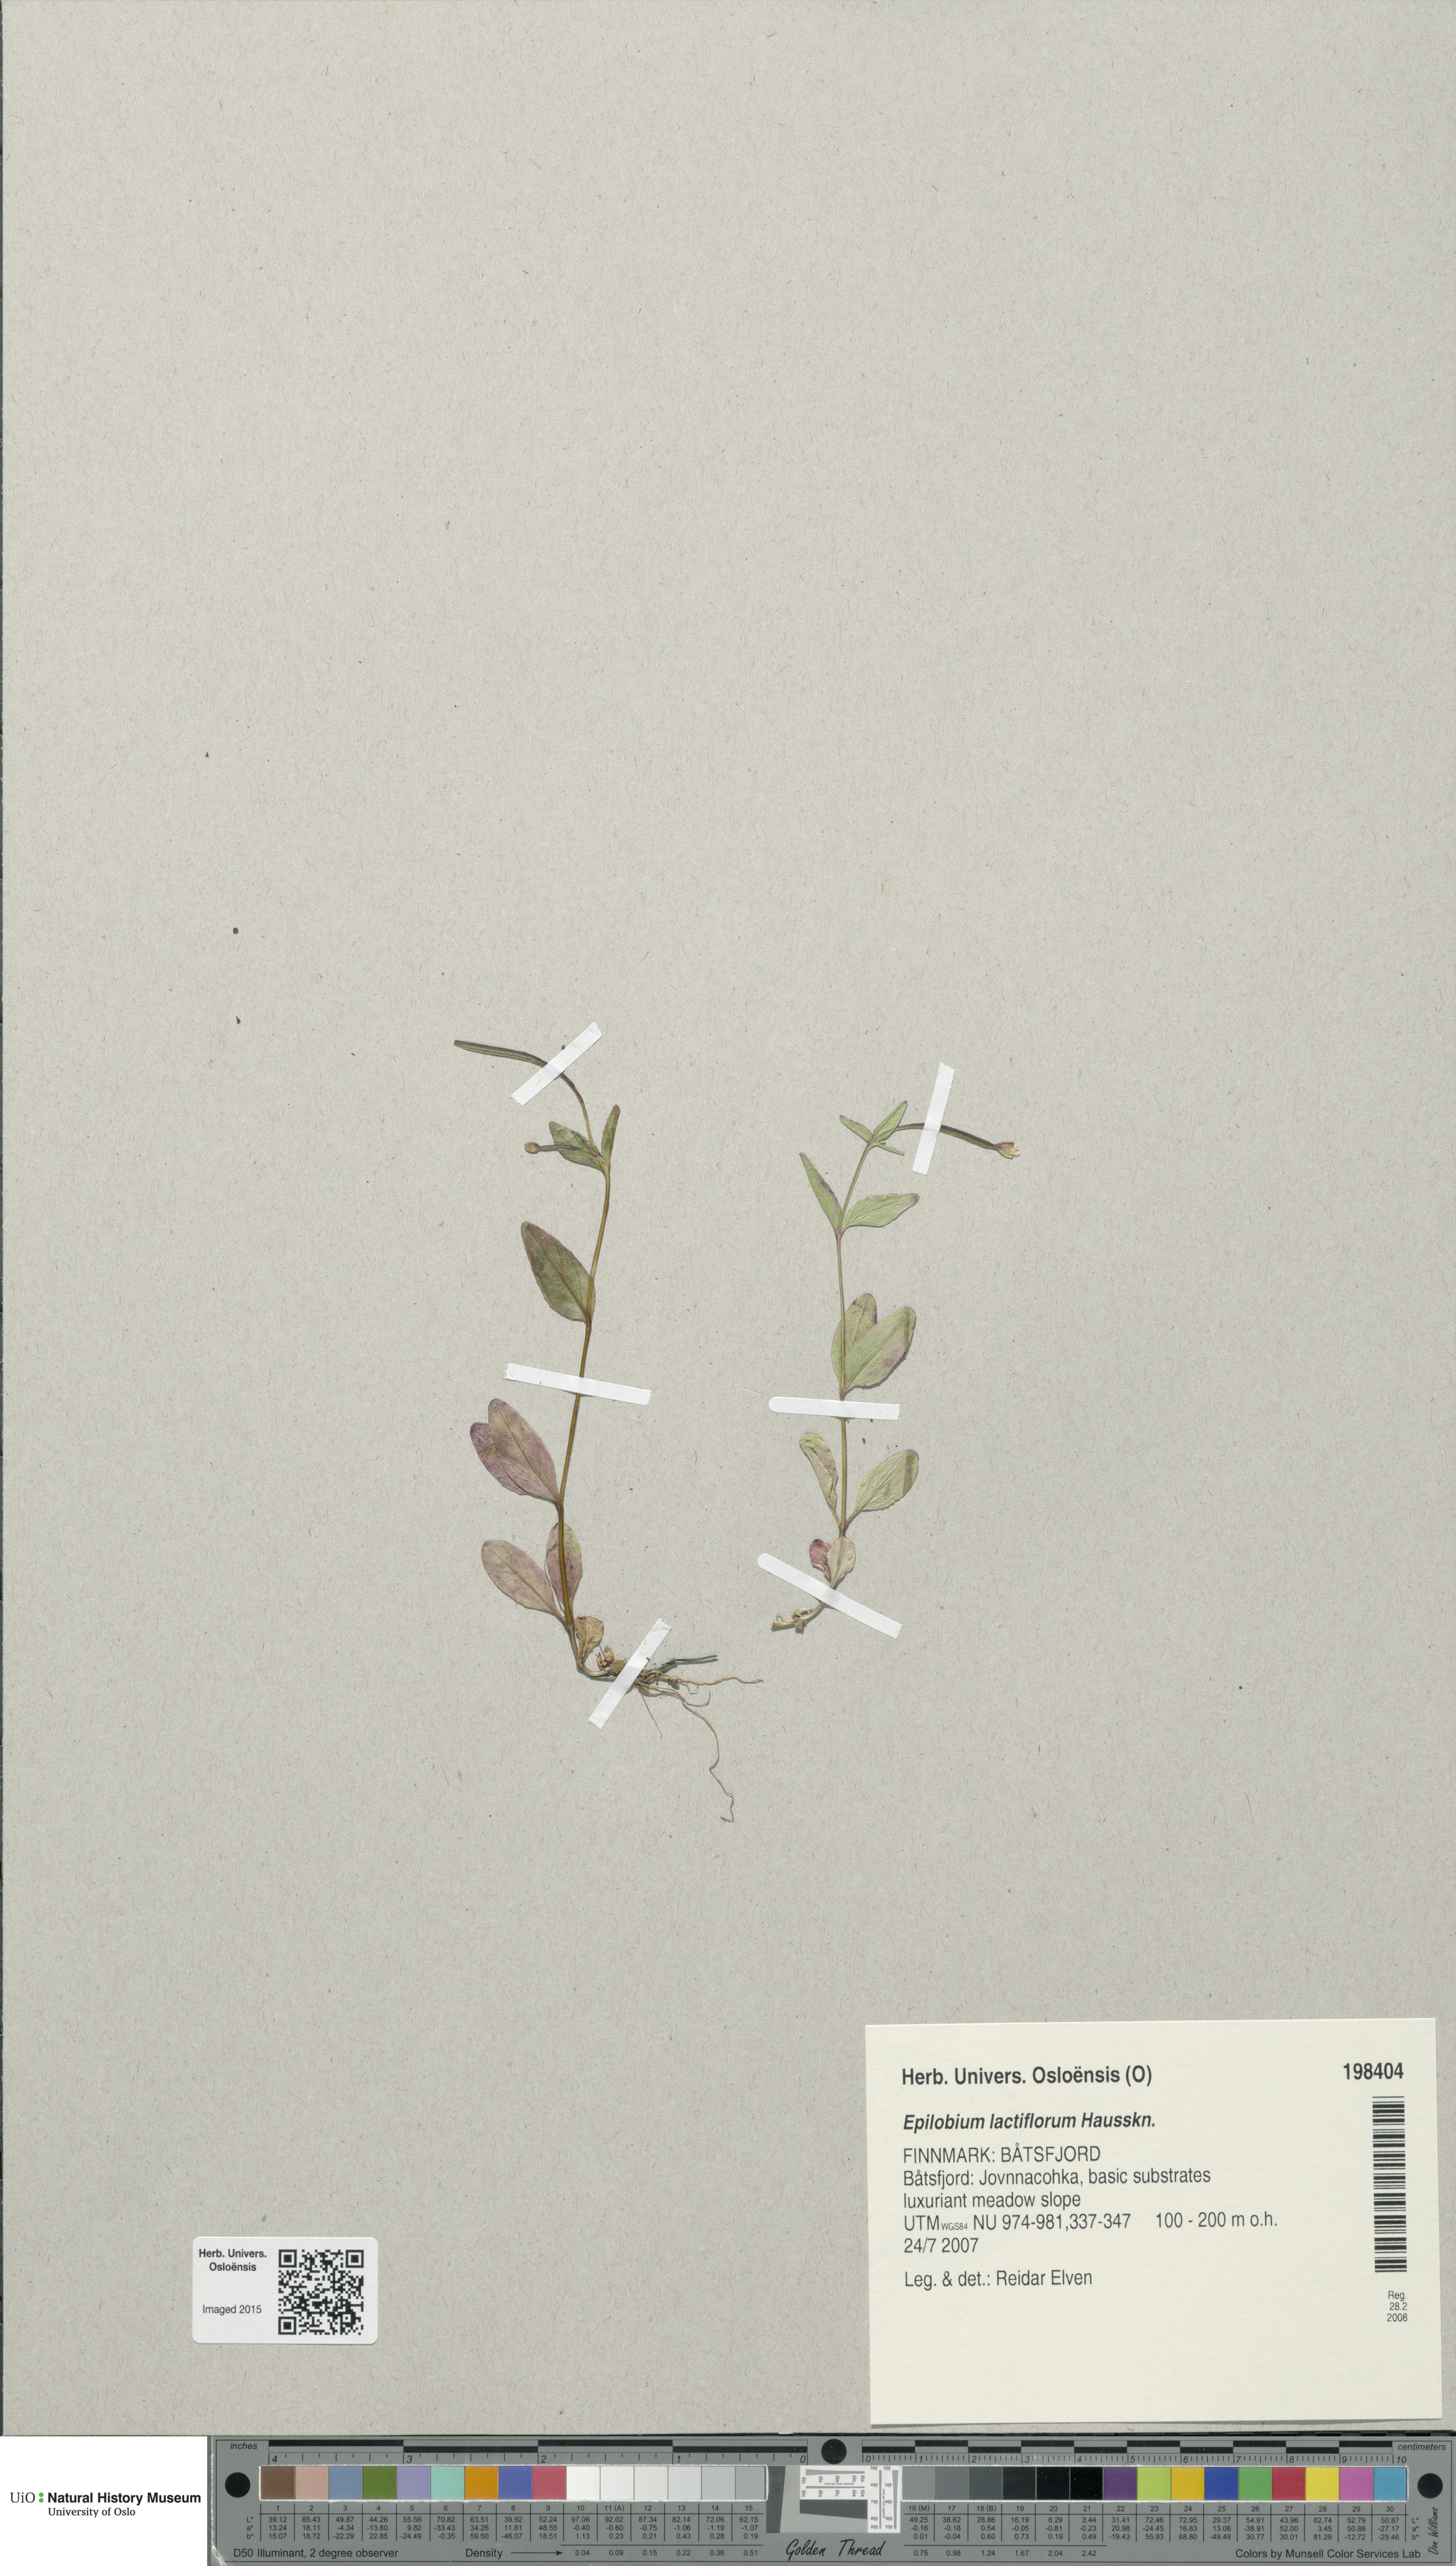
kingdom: Plantae
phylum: Tracheophyta
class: Magnoliopsida
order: Myrtales
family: Onagraceae
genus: Epilobium
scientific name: Epilobium lactiflorum
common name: Milkflower willowherb
